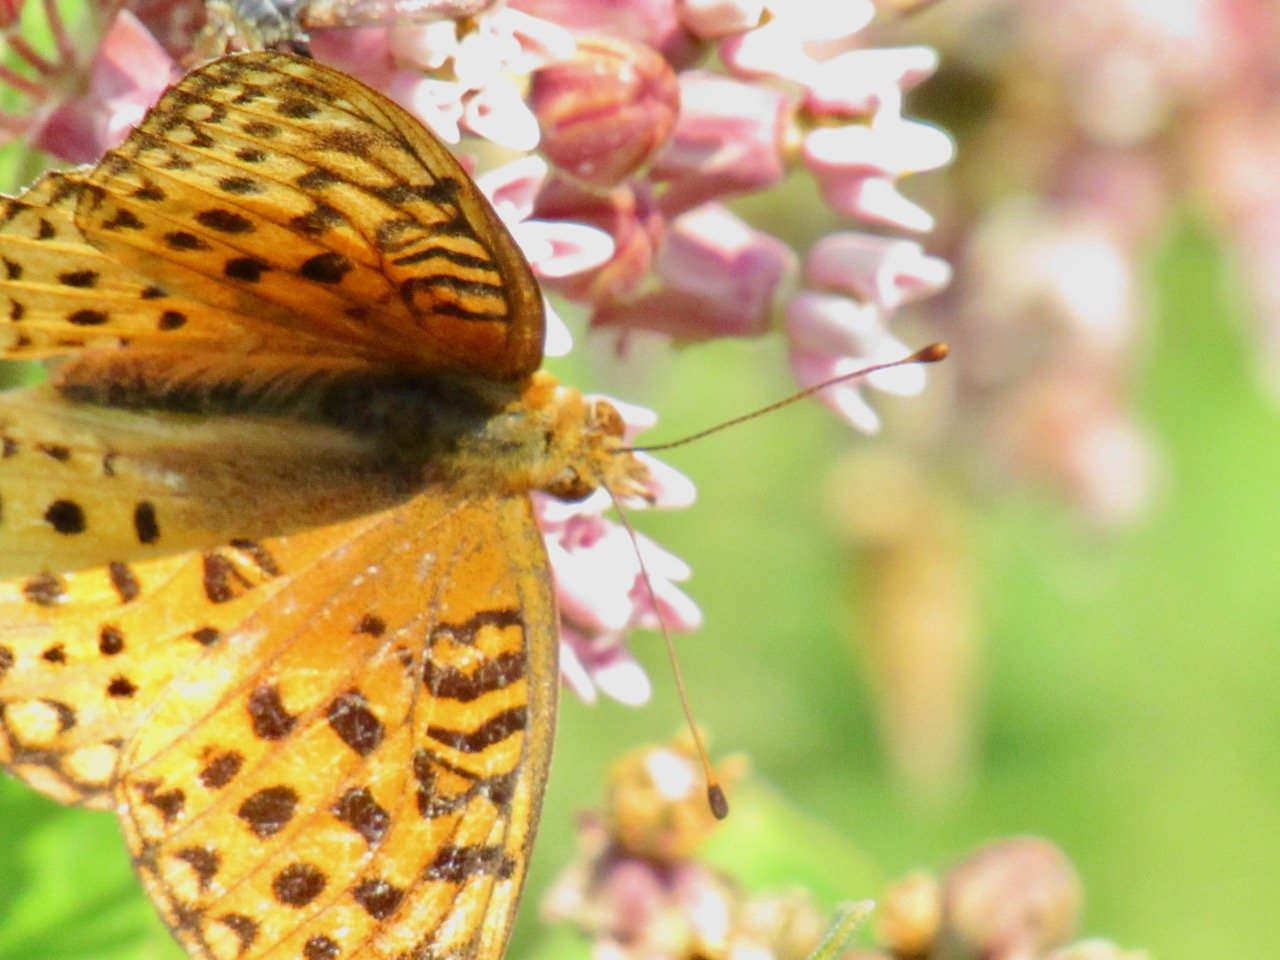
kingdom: Animalia
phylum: Arthropoda
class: Insecta
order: Lepidoptera
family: Nymphalidae
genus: Speyeria
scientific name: Speyeria aphrodite
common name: Aphrodite Fritillary
